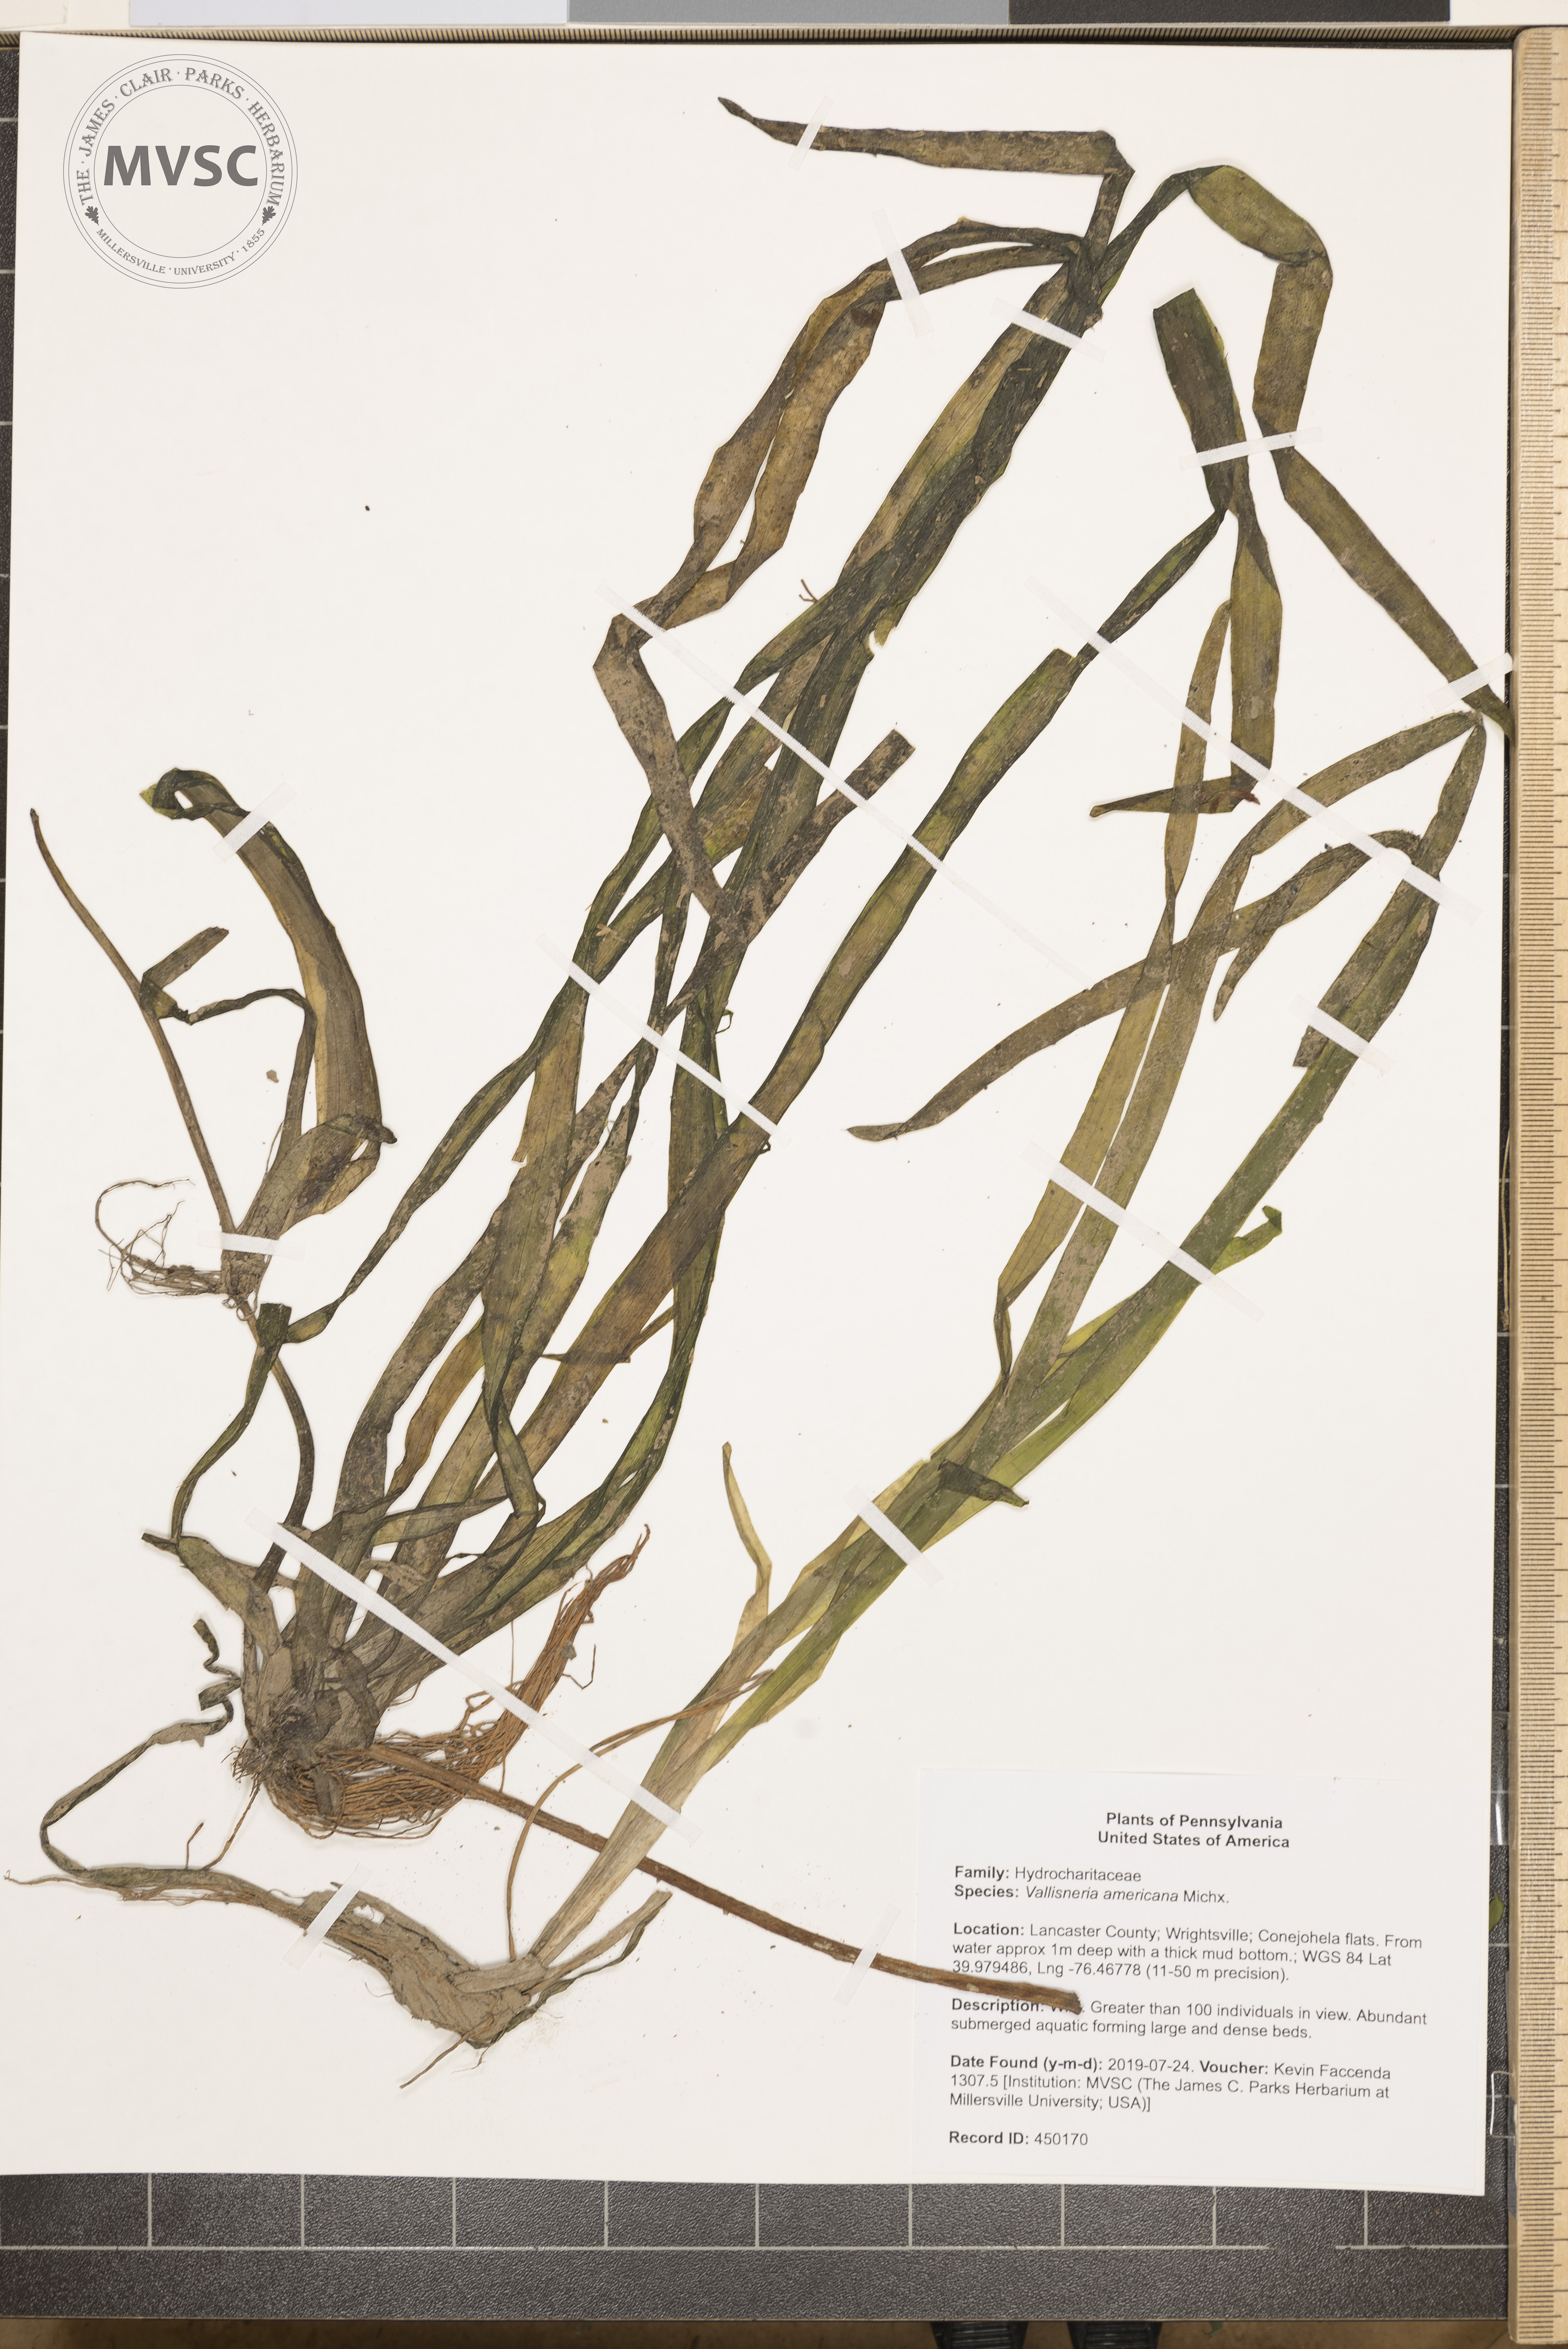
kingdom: Plantae
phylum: Tracheophyta
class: Liliopsida
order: Alismatales
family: Hydrocharitaceae
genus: Vallisneria
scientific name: Vallisneria americana
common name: American eelgrass
